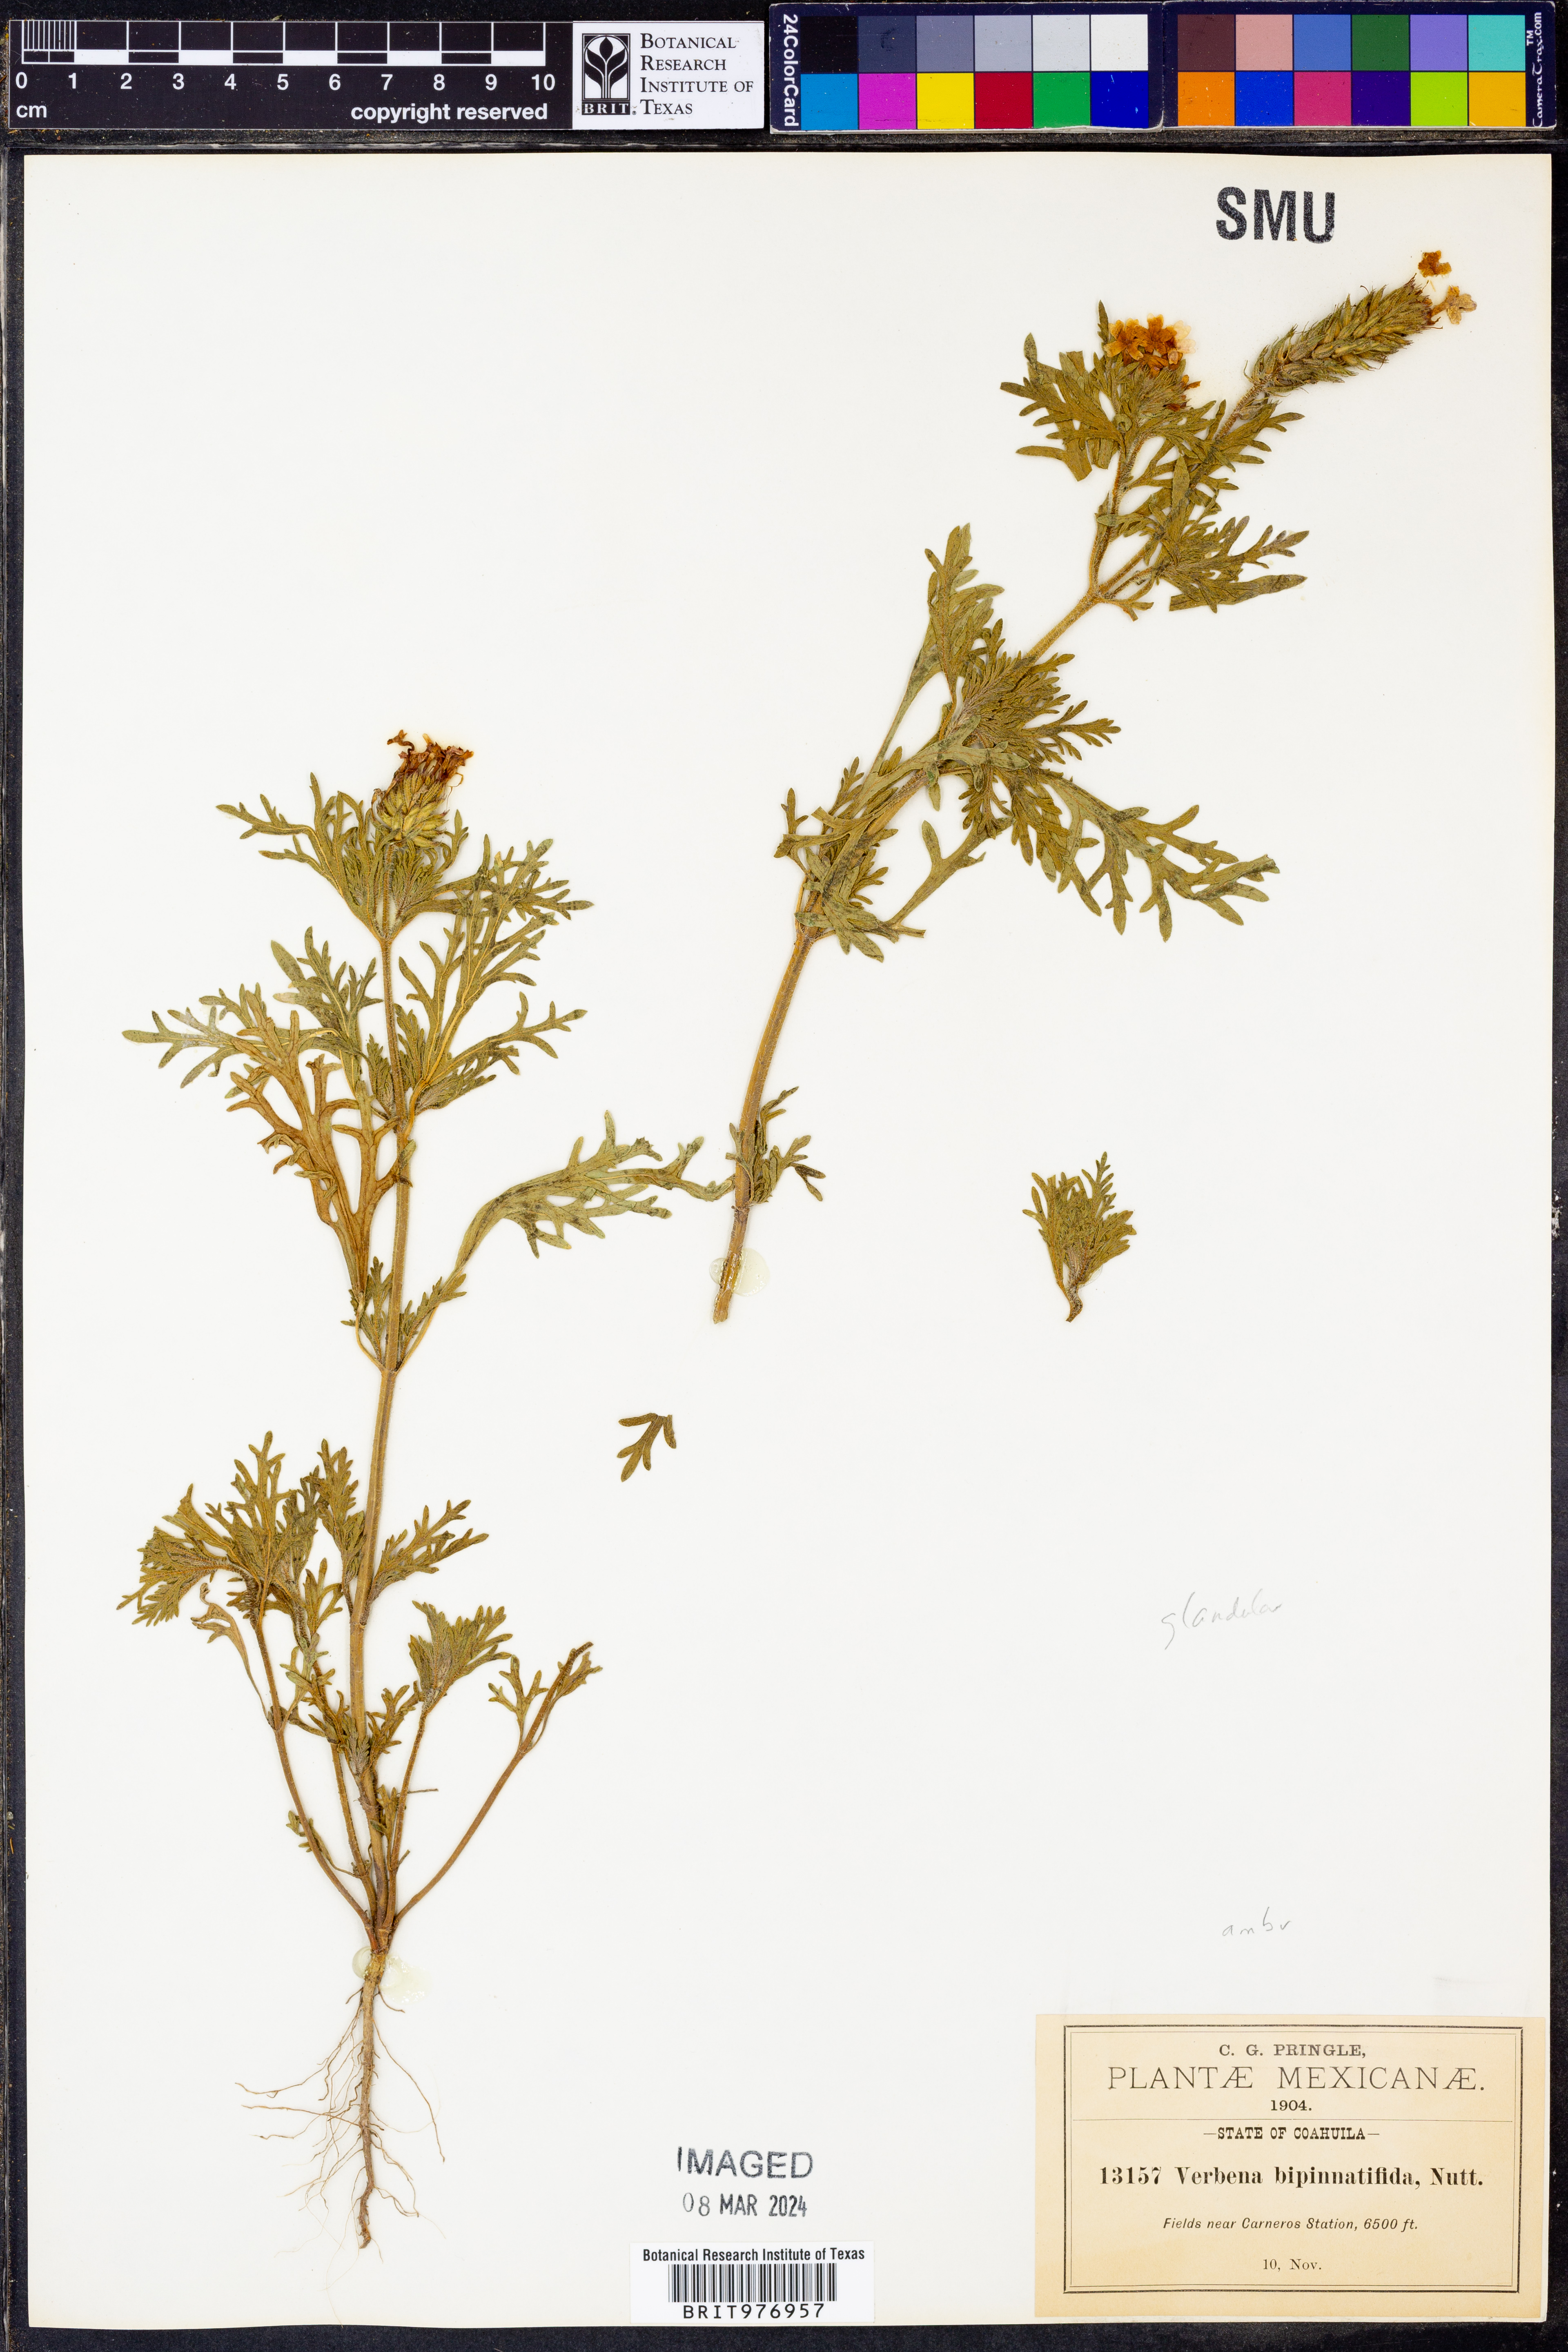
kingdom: Plantae
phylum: Tracheophyta
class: Magnoliopsida
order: Lamiales
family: Verbenaceae
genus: Verbena
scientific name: Verbena
